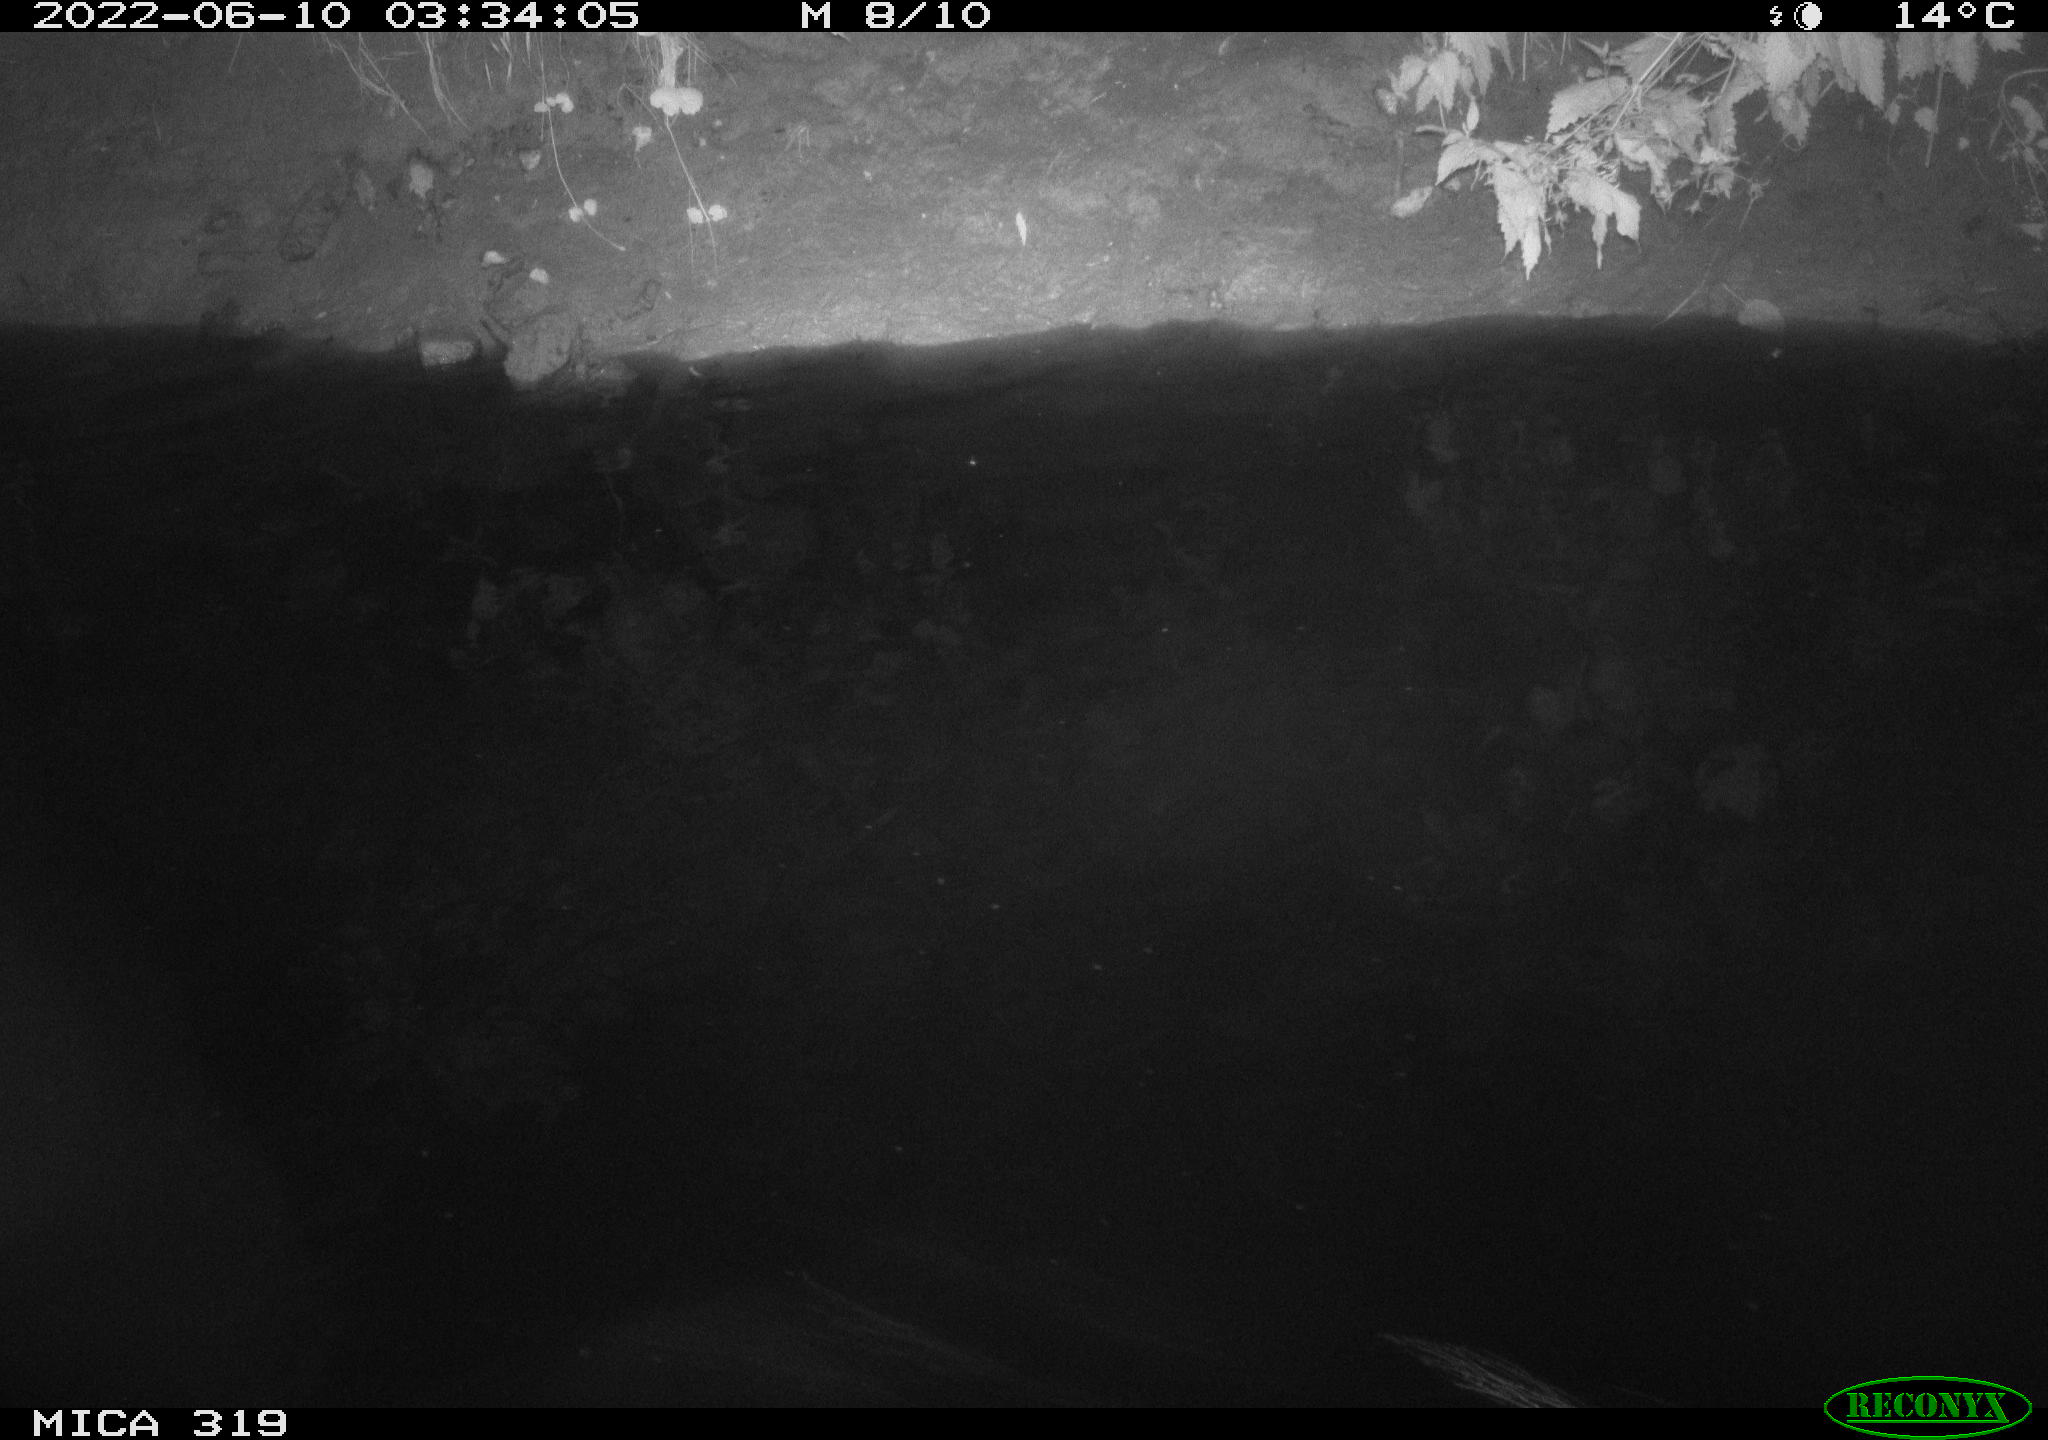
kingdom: Animalia
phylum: Chordata
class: Aves
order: Anseriformes
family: Anatidae
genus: Anas
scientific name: Anas
